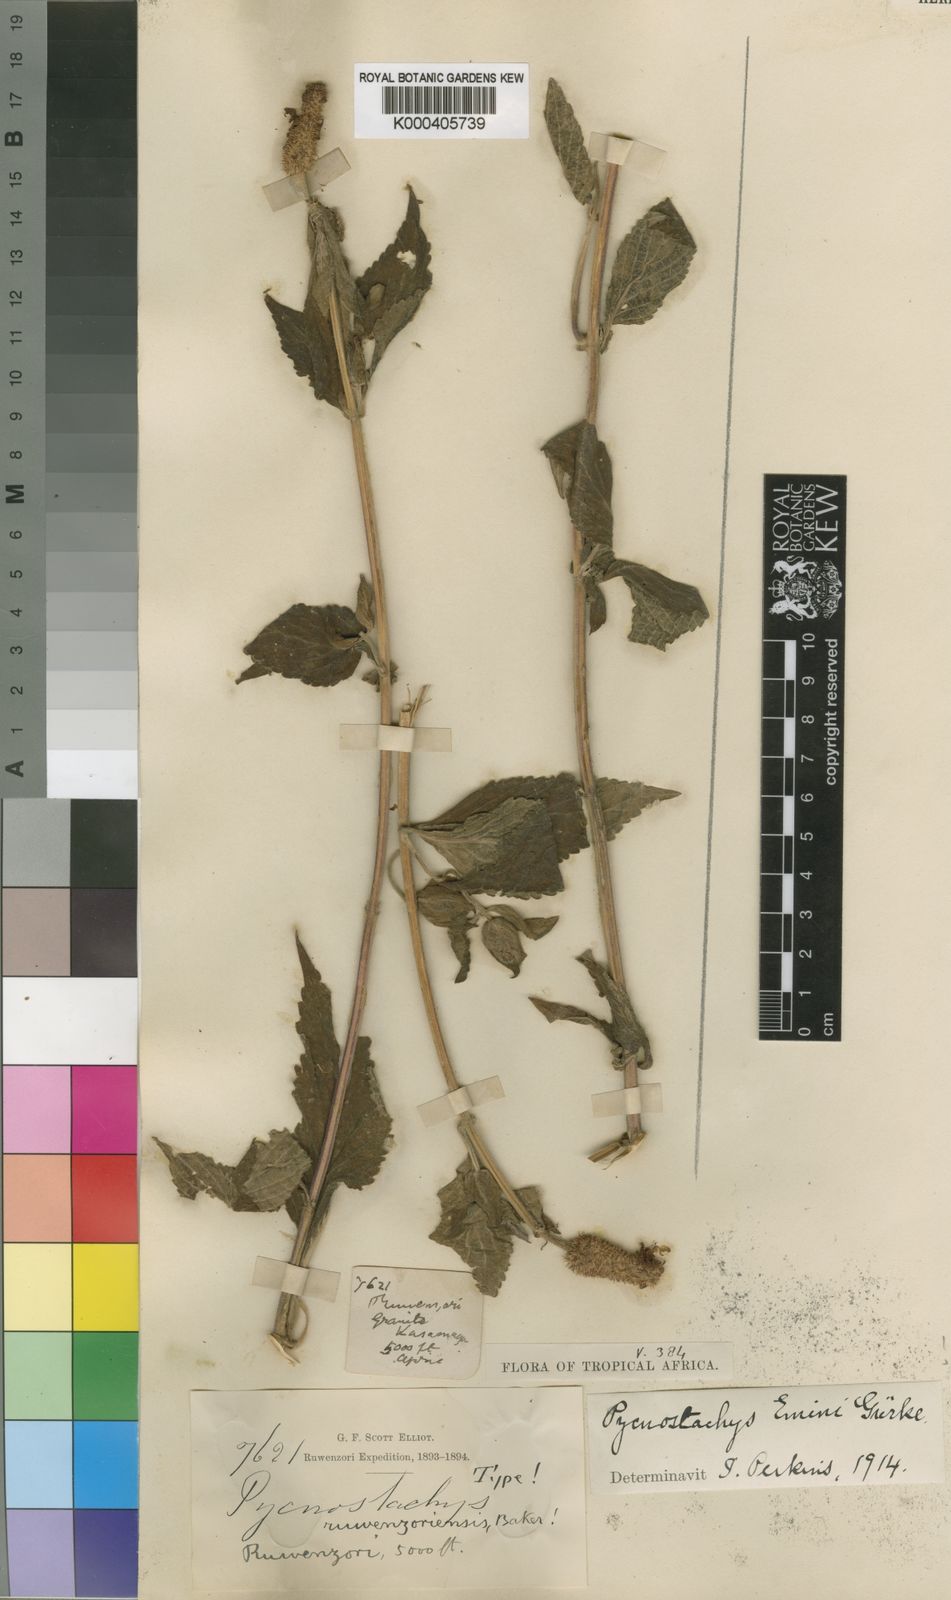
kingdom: Plantae
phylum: Tracheophyta
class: Magnoliopsida
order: Lamiales
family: Lamiaceae
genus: Coleus
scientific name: Coleus
